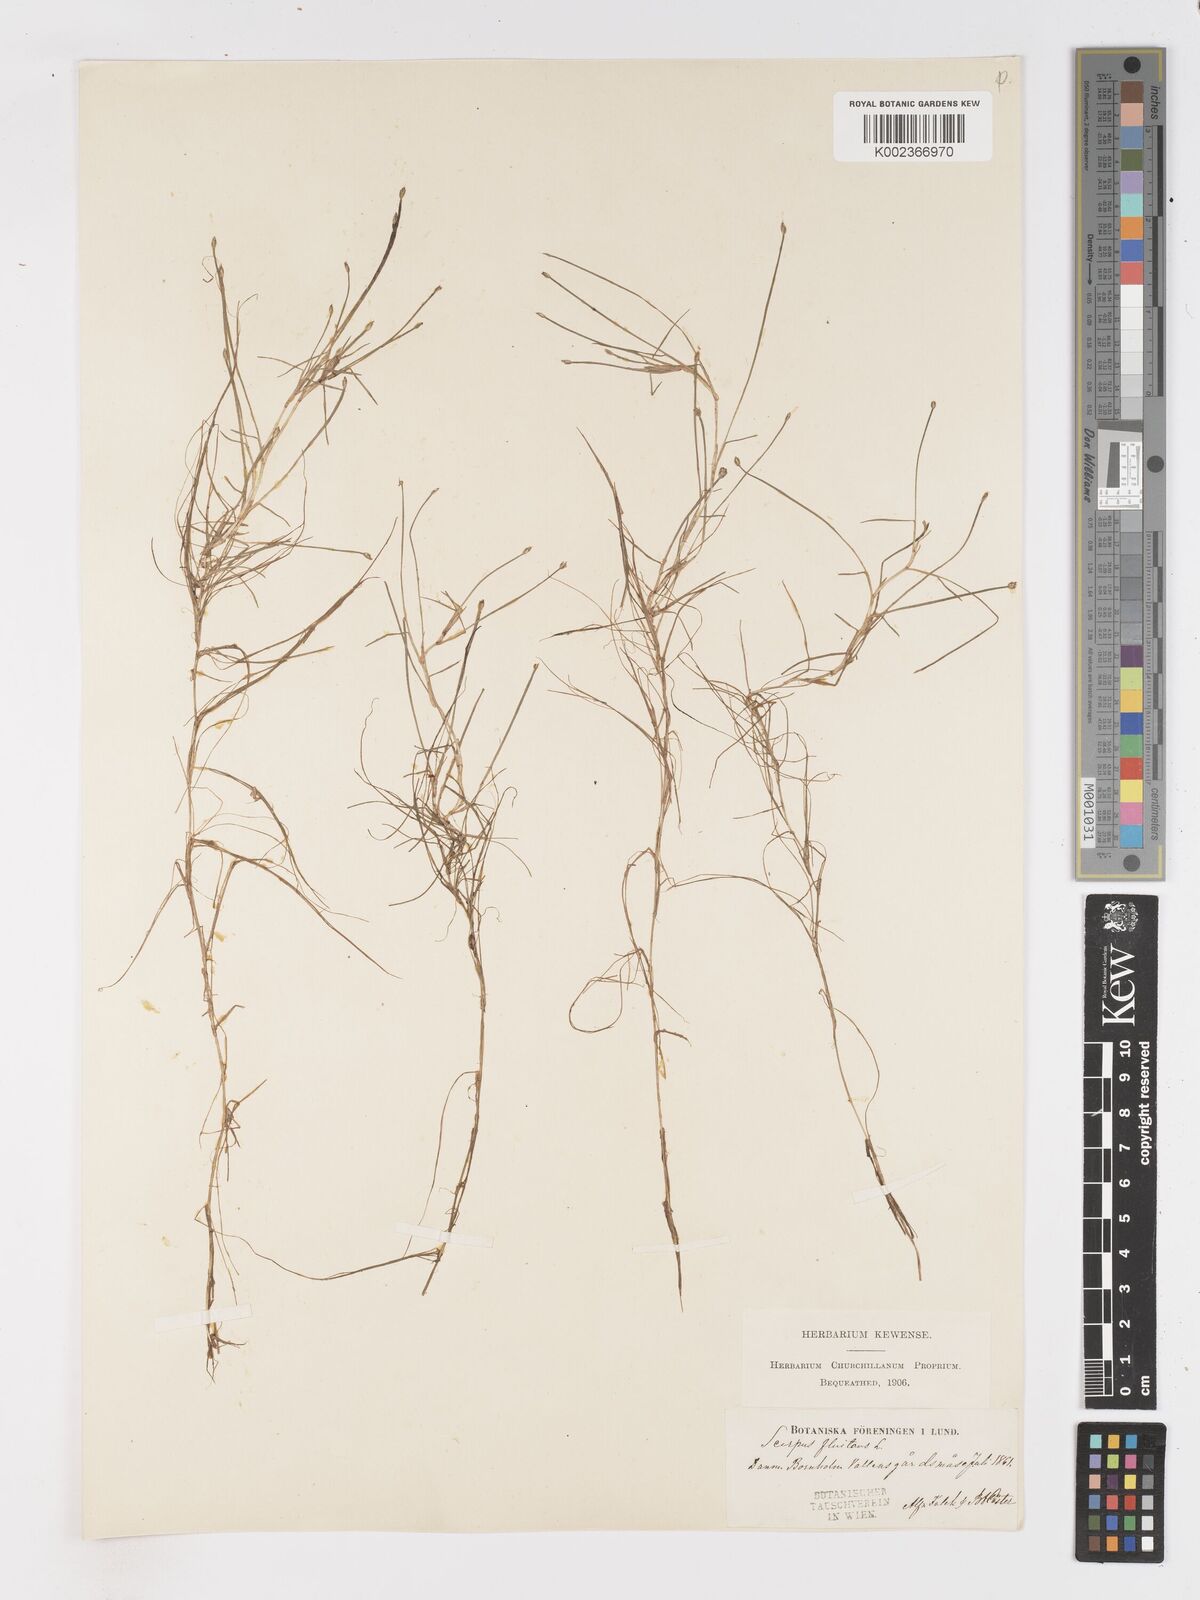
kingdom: Plantae
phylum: Tracheophyta
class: Liliopsida
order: Poales
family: Cyperaceae
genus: Isolepis
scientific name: Isolepis fluitans
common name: Floating club-rush
